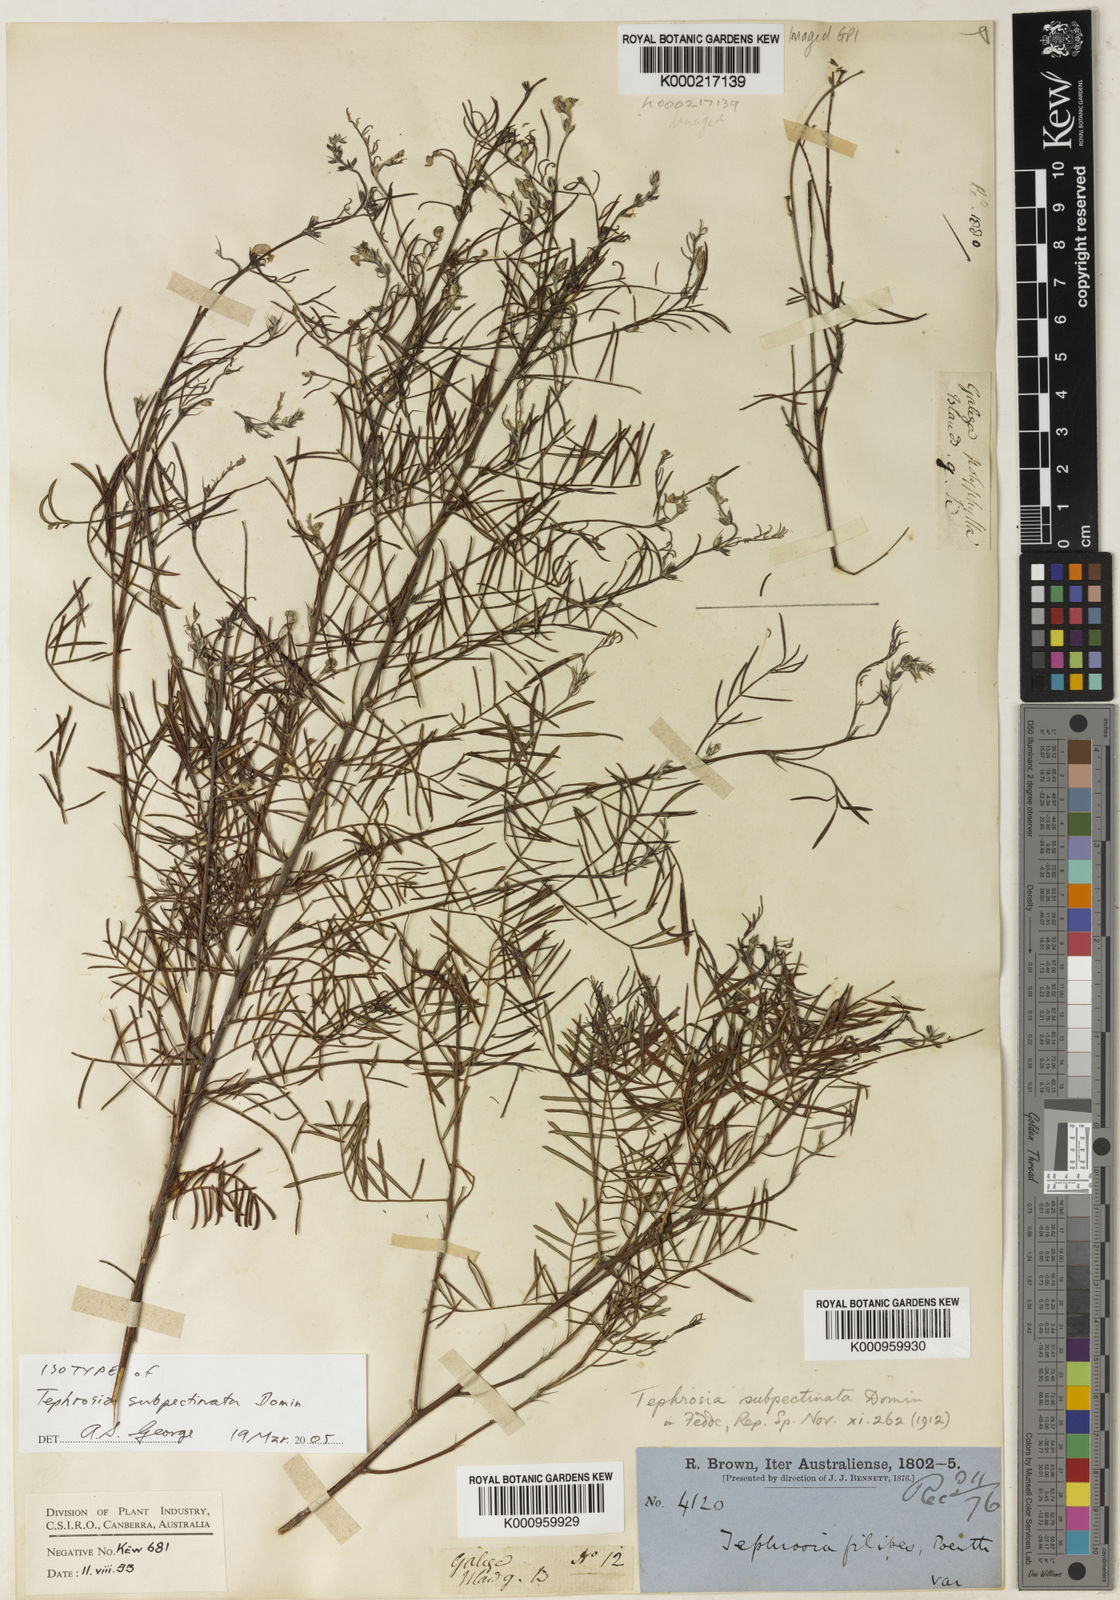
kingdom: Plantae
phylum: Tracheophyta
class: Magnoliopsida
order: Fabales
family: Fabaceae
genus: Tephrosia
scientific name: Tephrosia subpectinata
